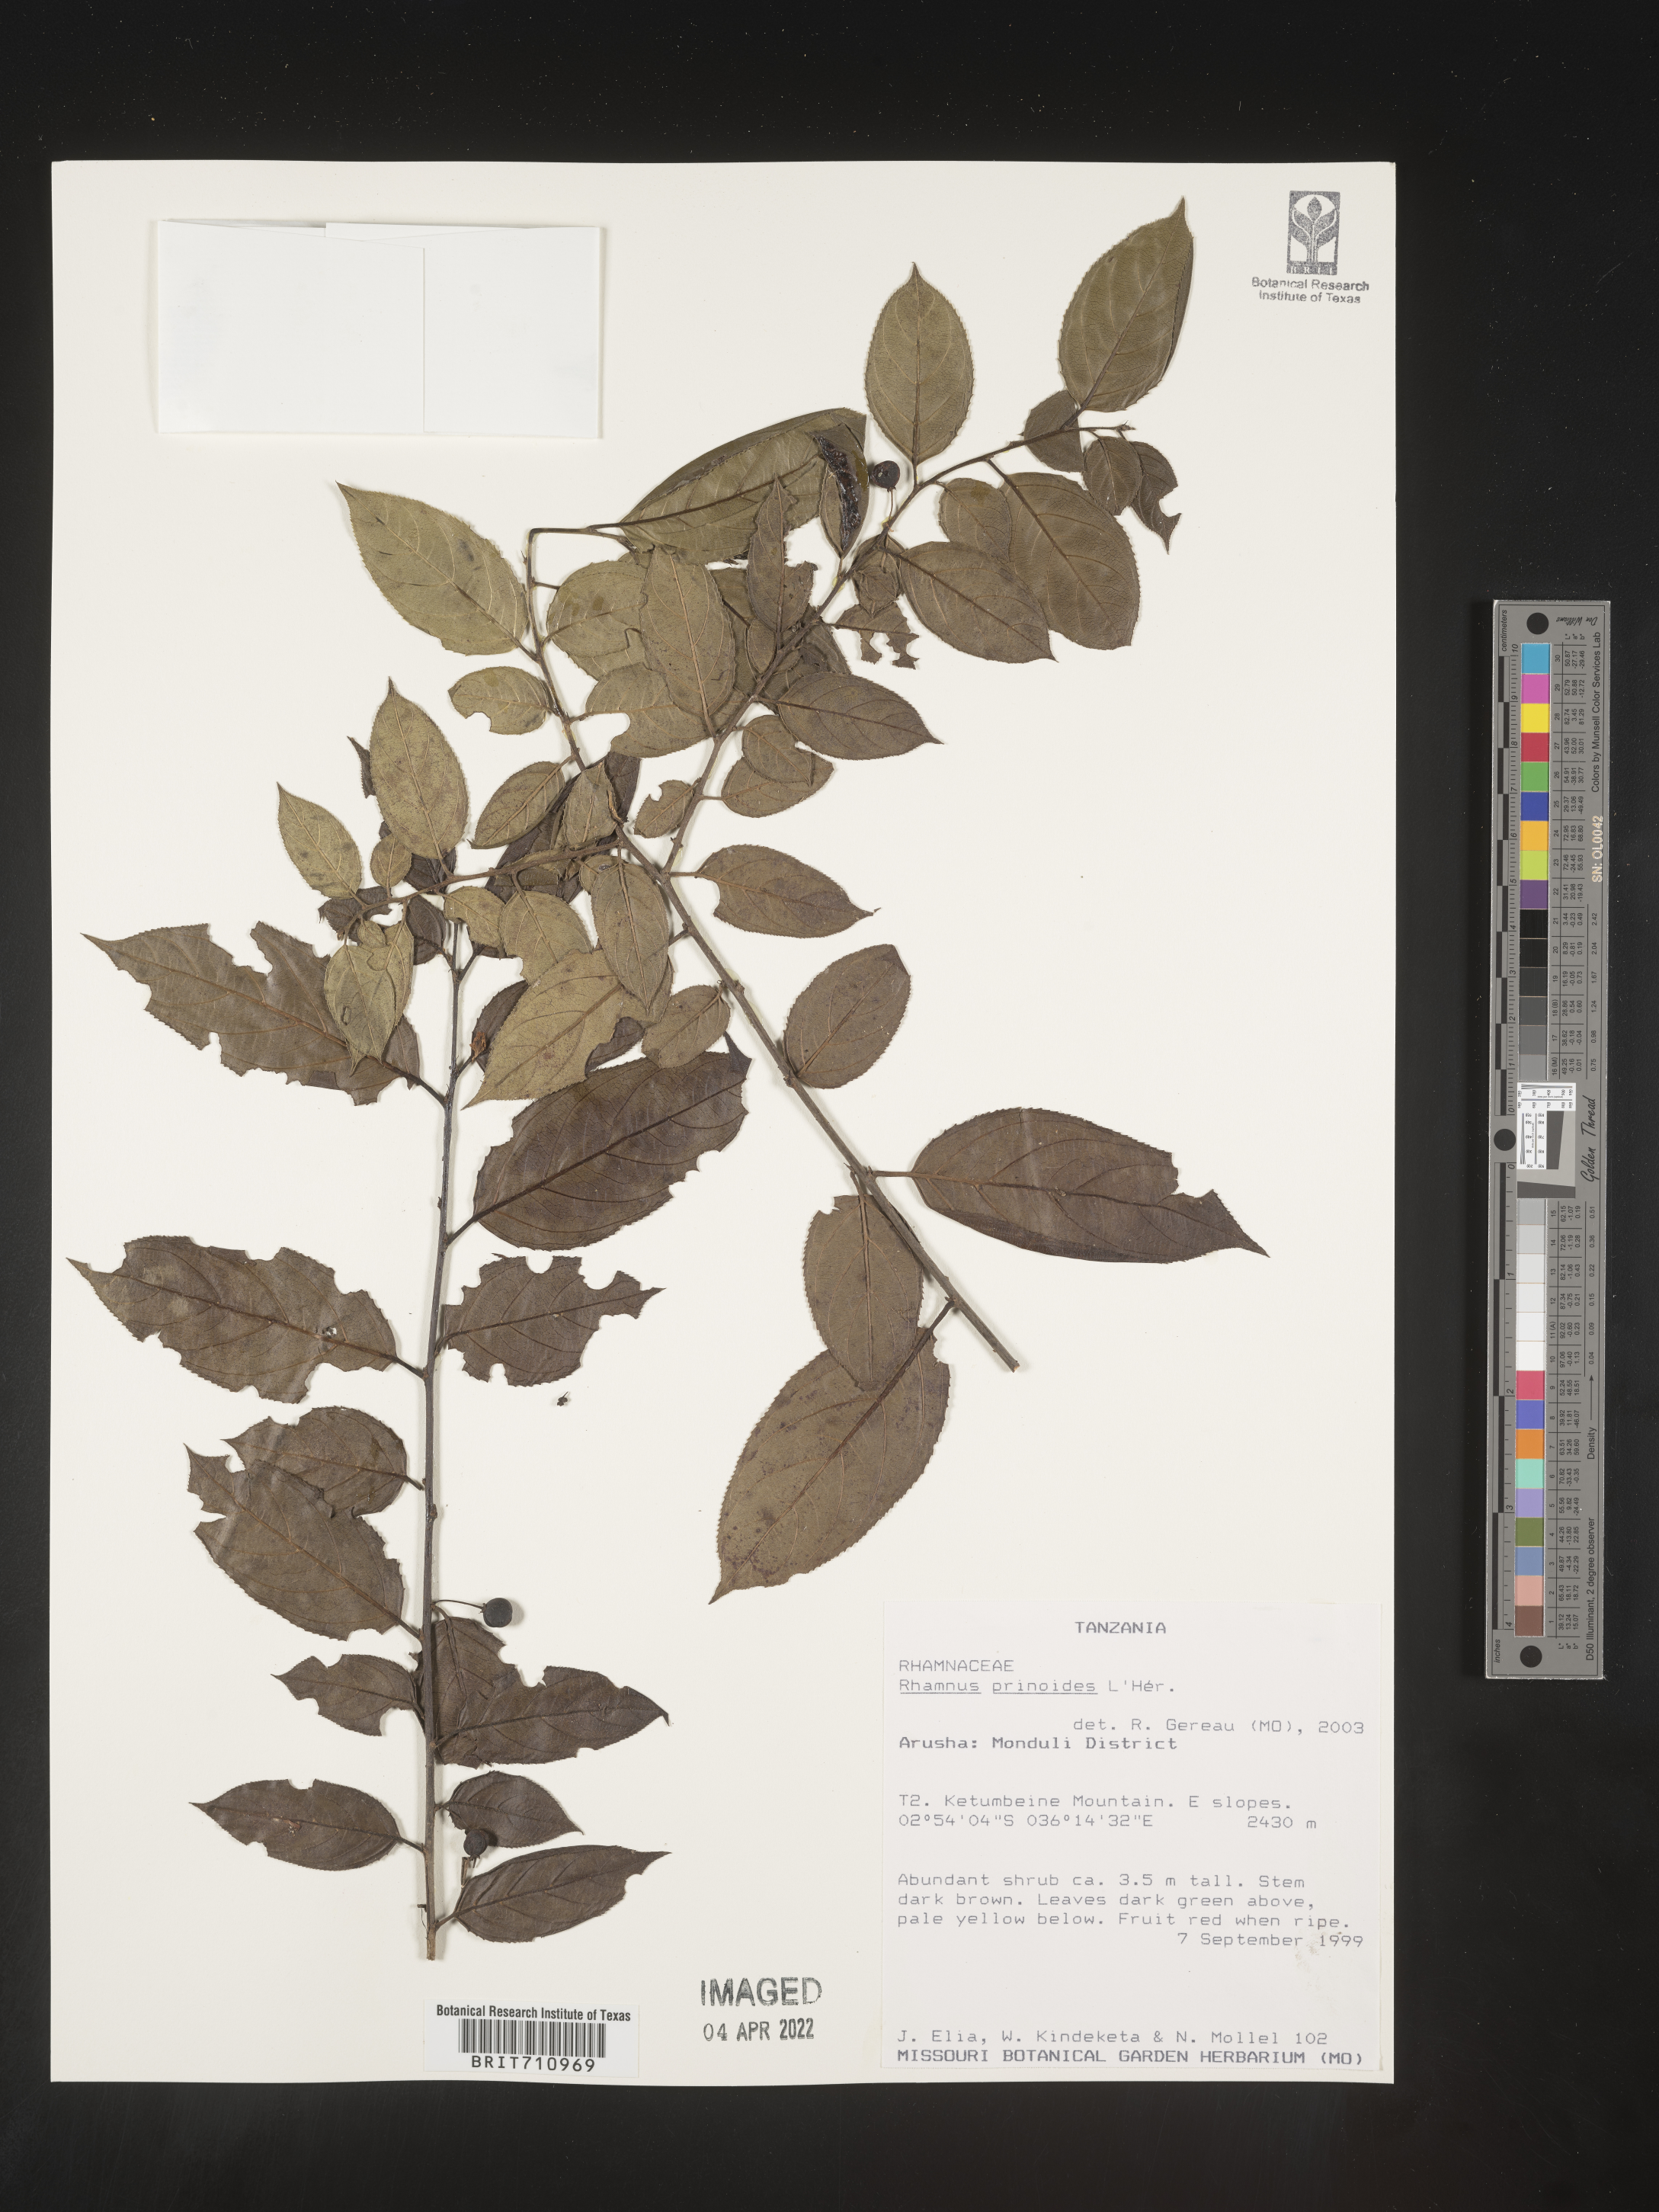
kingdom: Plantae
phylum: Tracheophyta
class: Magnoliopsida
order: Rosales
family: Rhamnaceae
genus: Rhamnus
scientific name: Rhamnus
